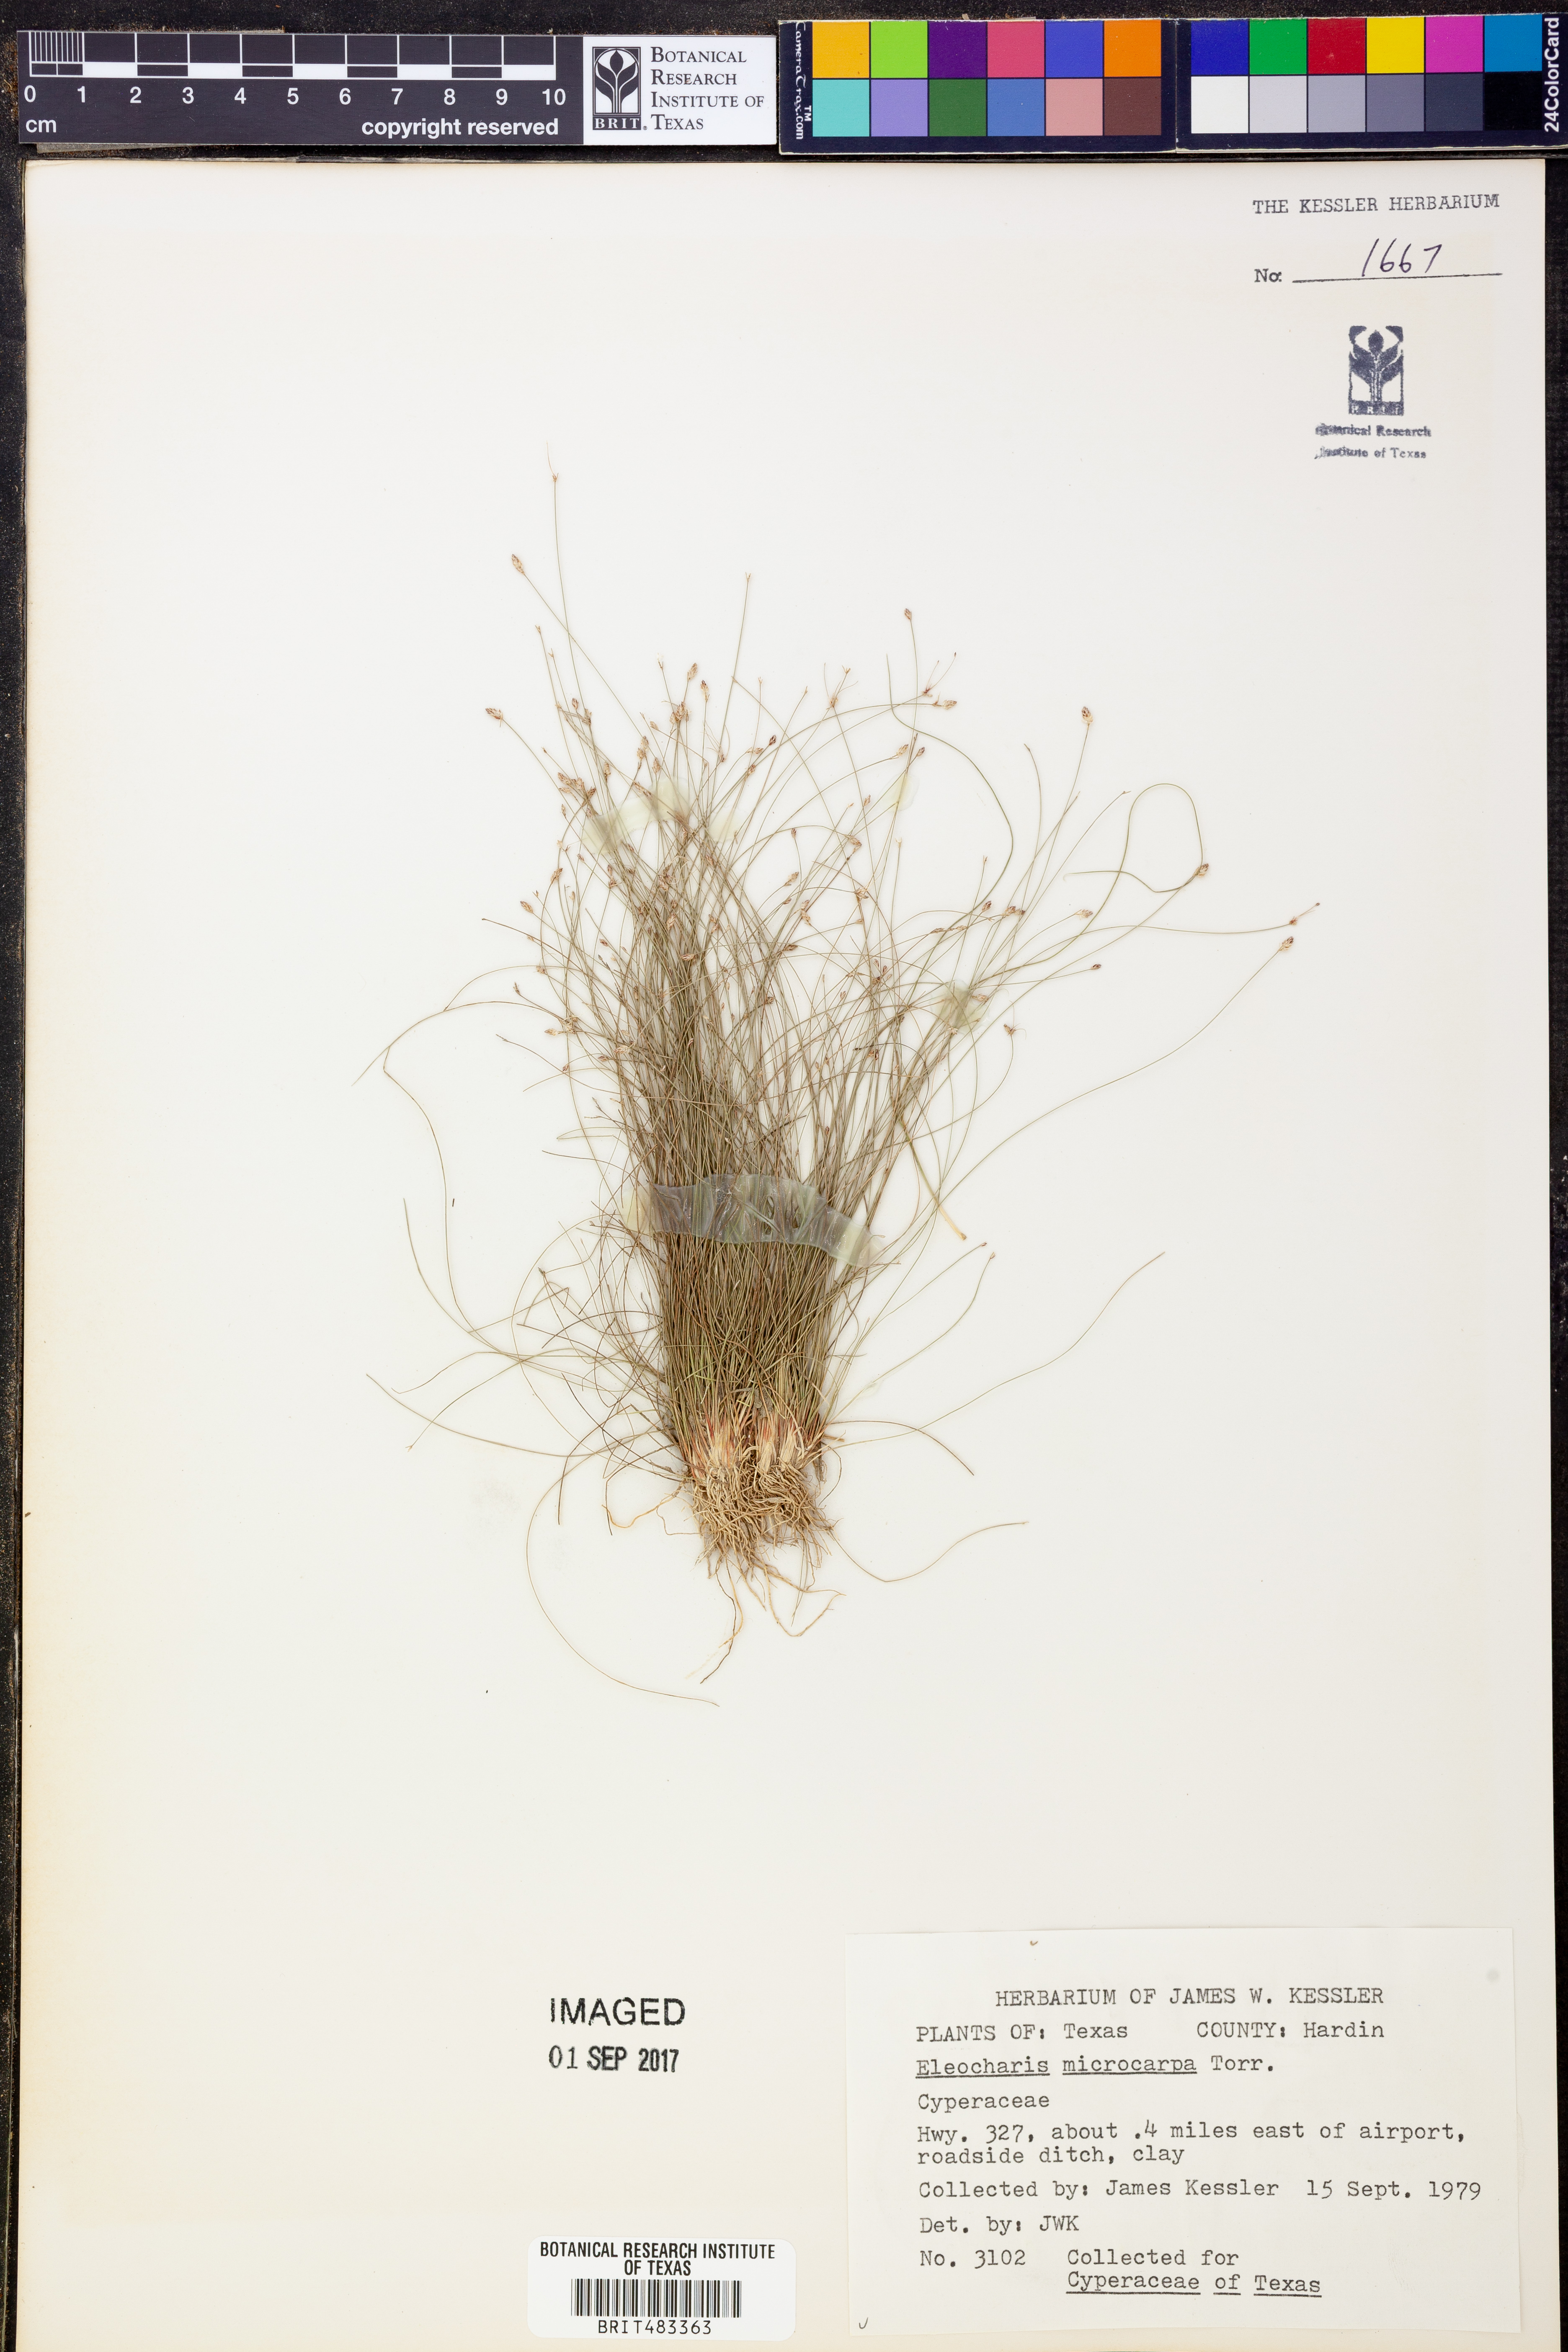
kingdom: Plantae
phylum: Tracheophyta
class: Liliopsida
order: Poales
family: Cyperaceae
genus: Eleocharis
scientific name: Eleocharis microcarpa
